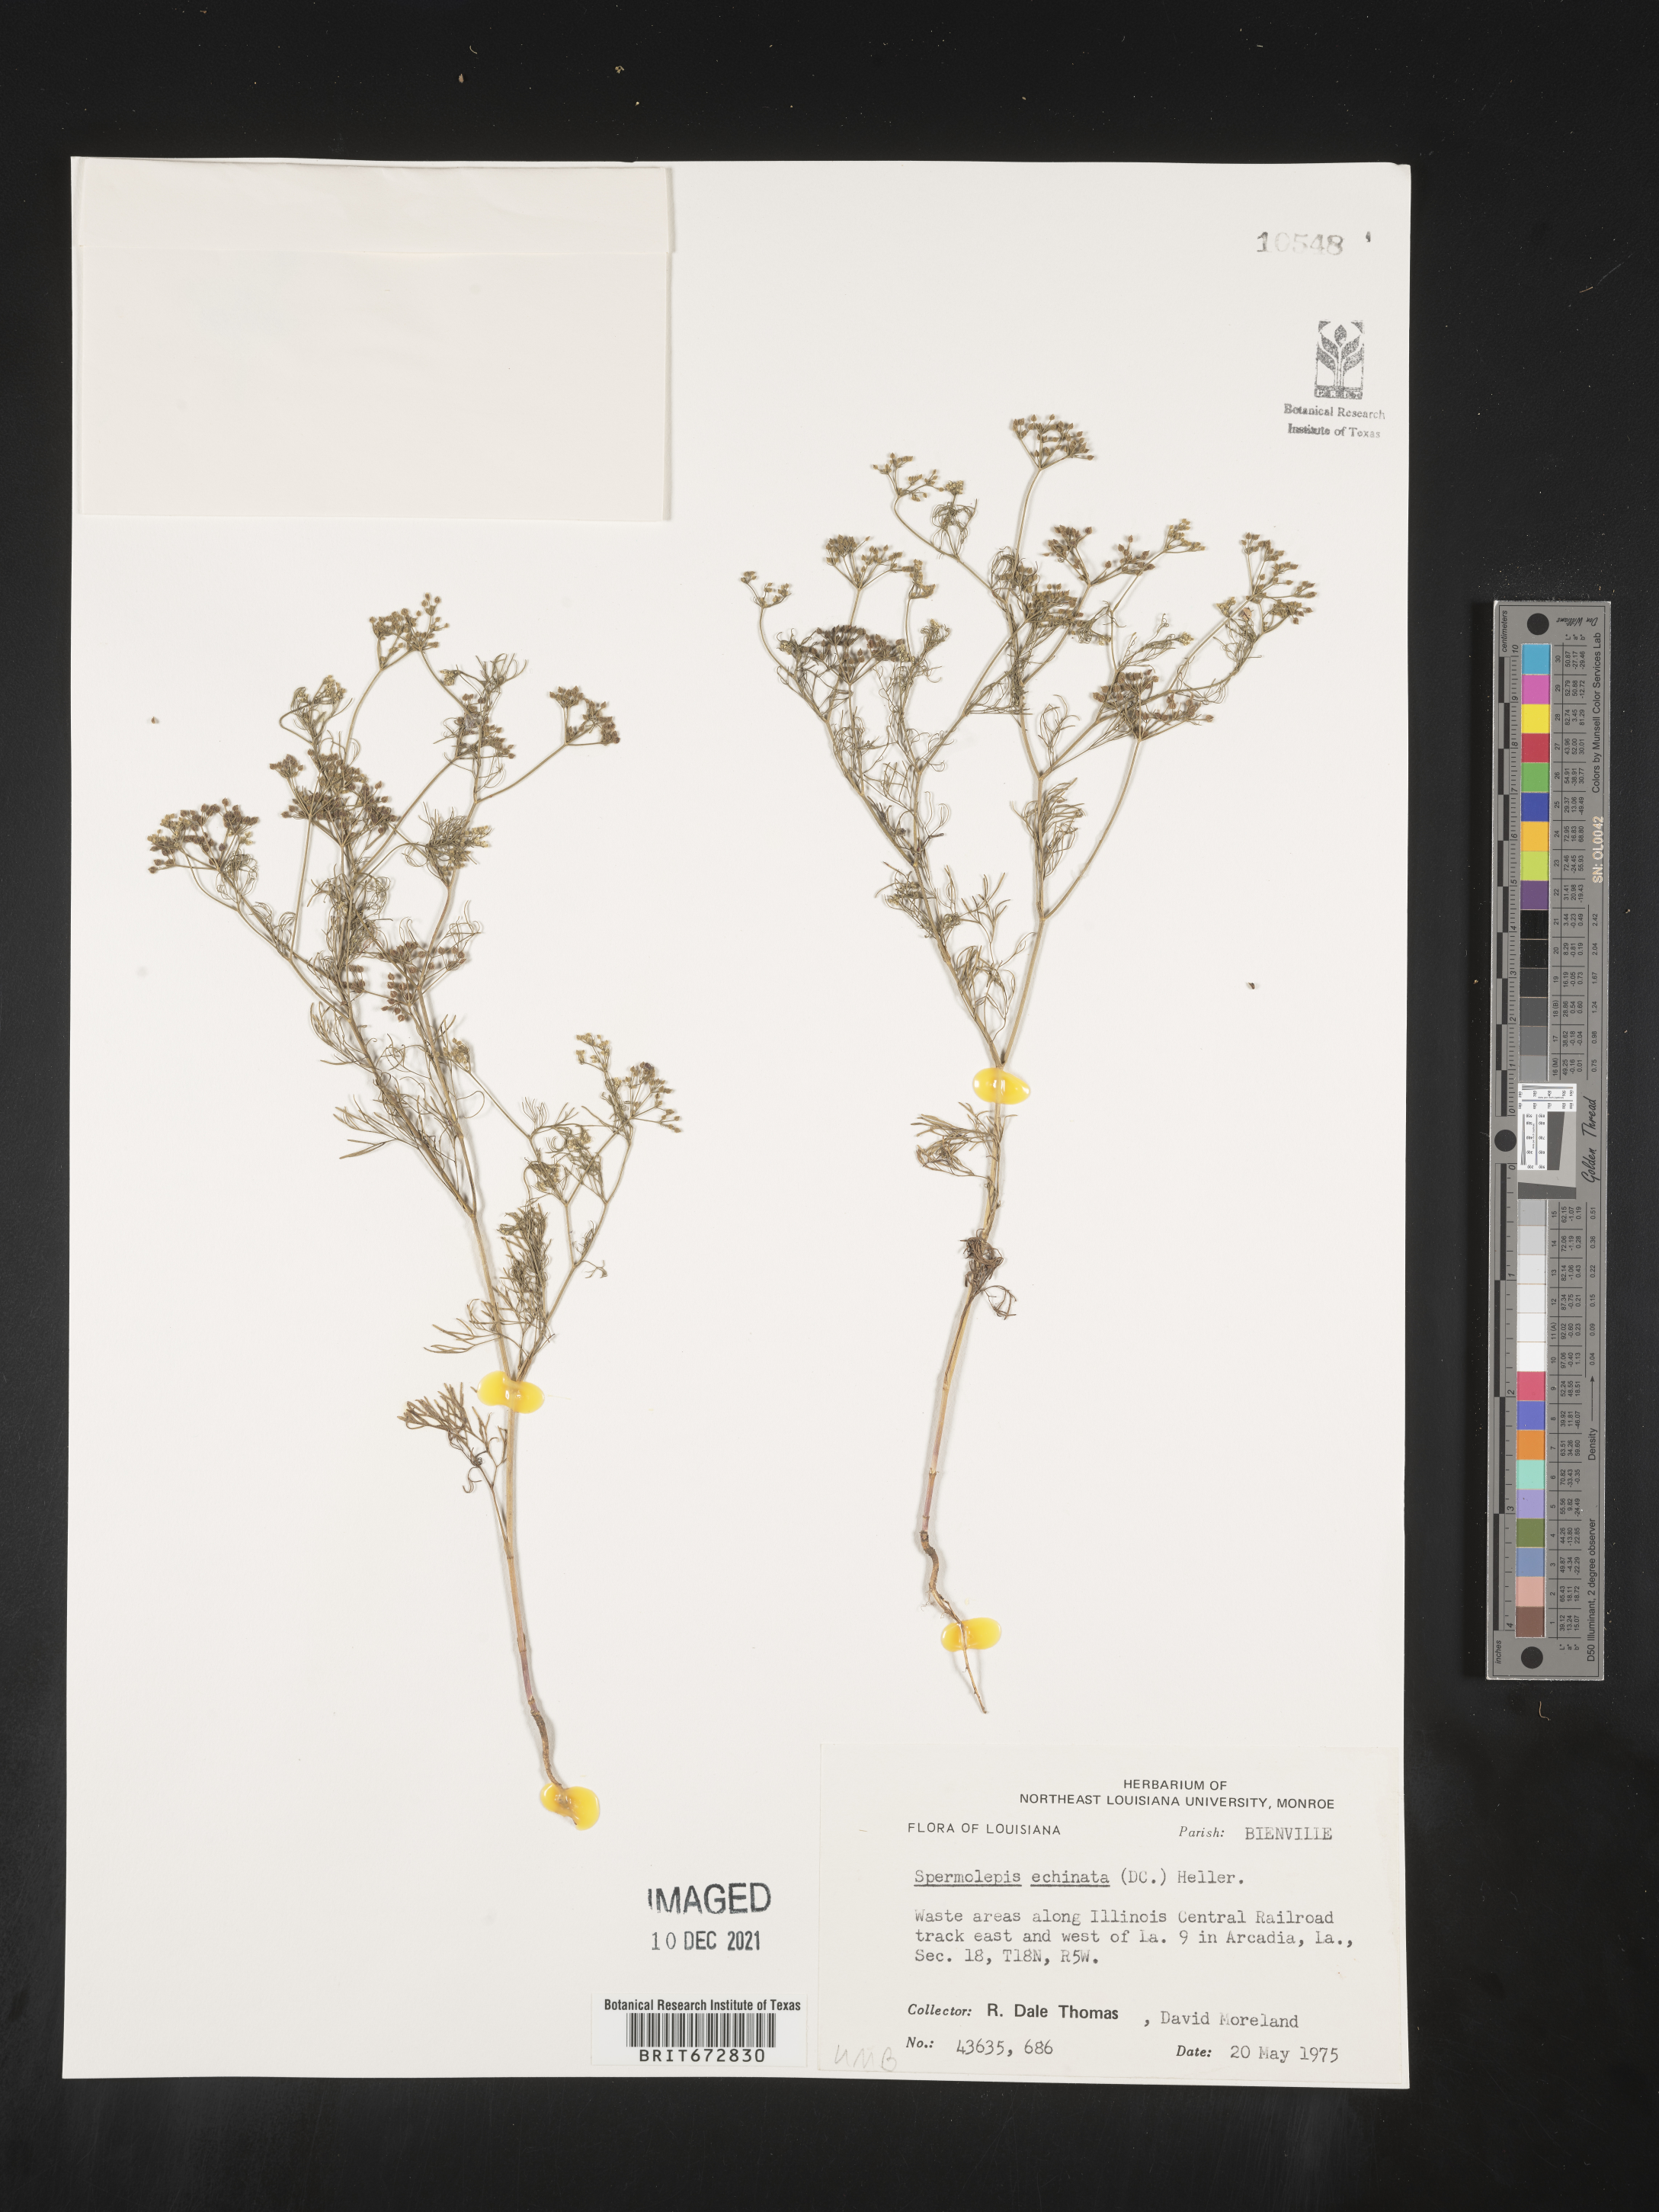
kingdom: Plantae
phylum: Tracheophyta
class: Magnoliopsida
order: Apiales
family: Apiaceae
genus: Spermolepis
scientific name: Spermolepis echinata
